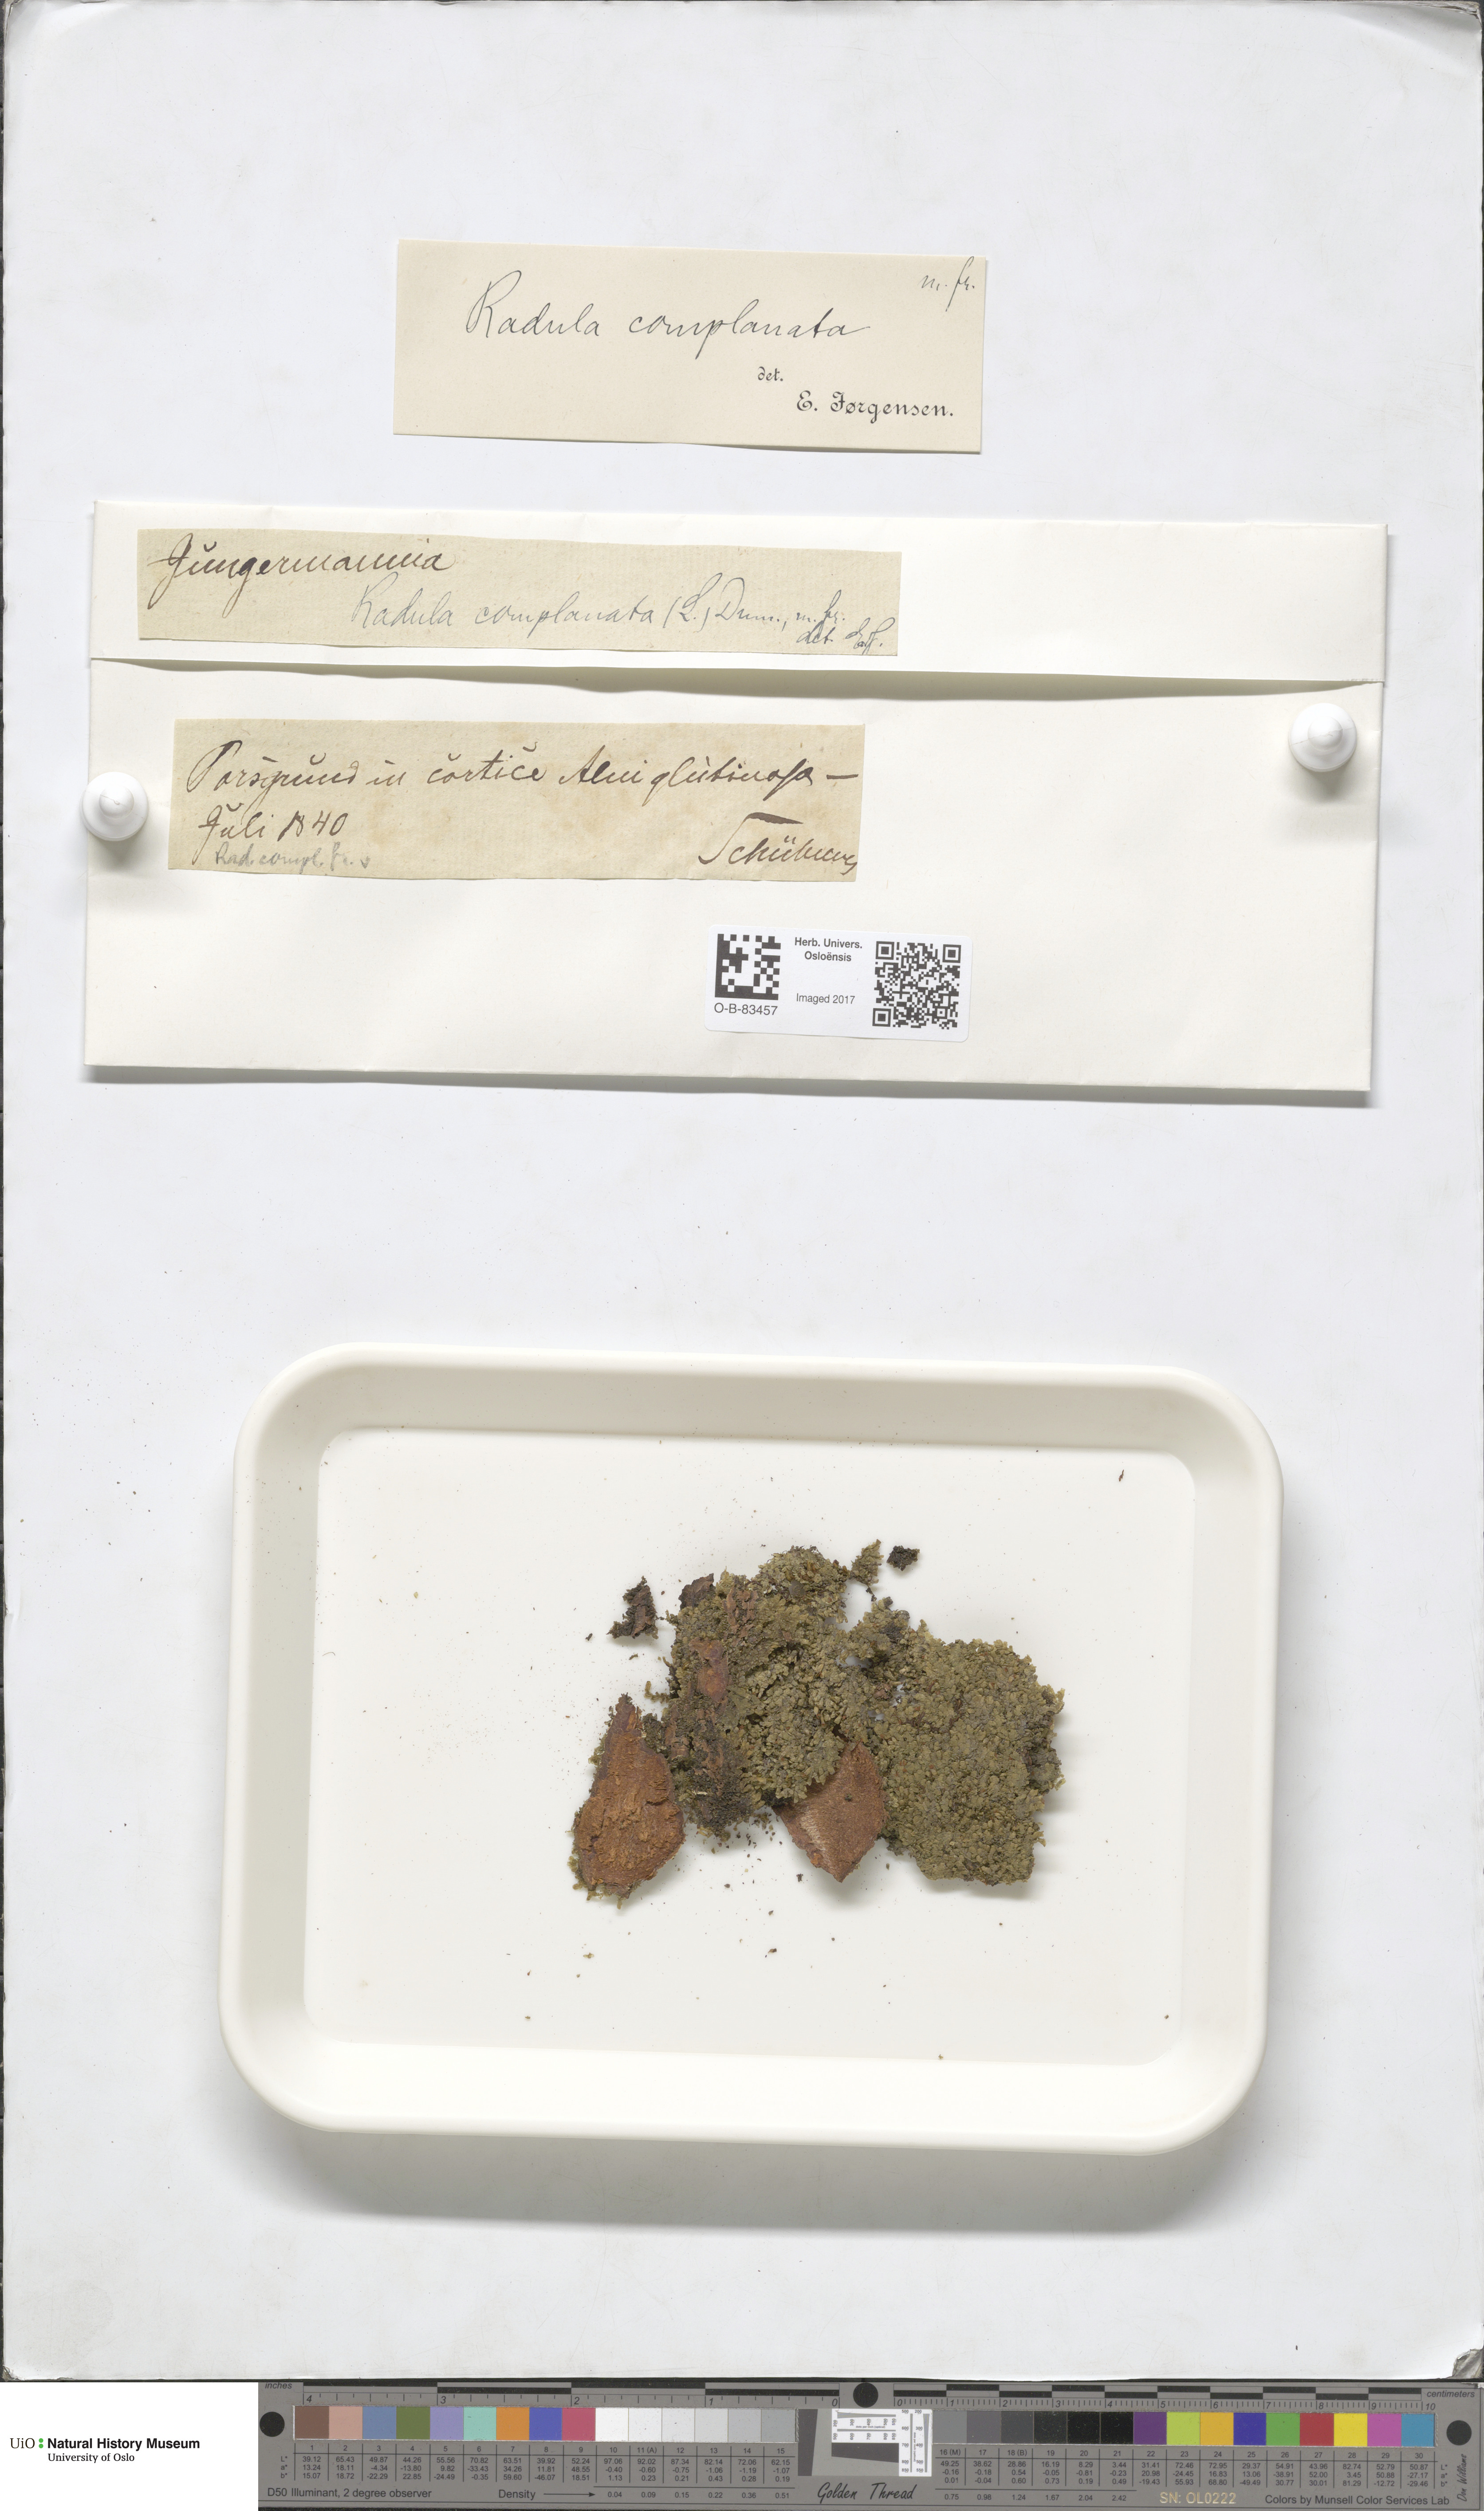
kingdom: Plantae
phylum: Marchantiophyta
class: Jungermanniopsida
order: Porellales
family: Radulaceae
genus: Radula
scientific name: Radula lindenbergiana
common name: Lindenberg's scalewort
